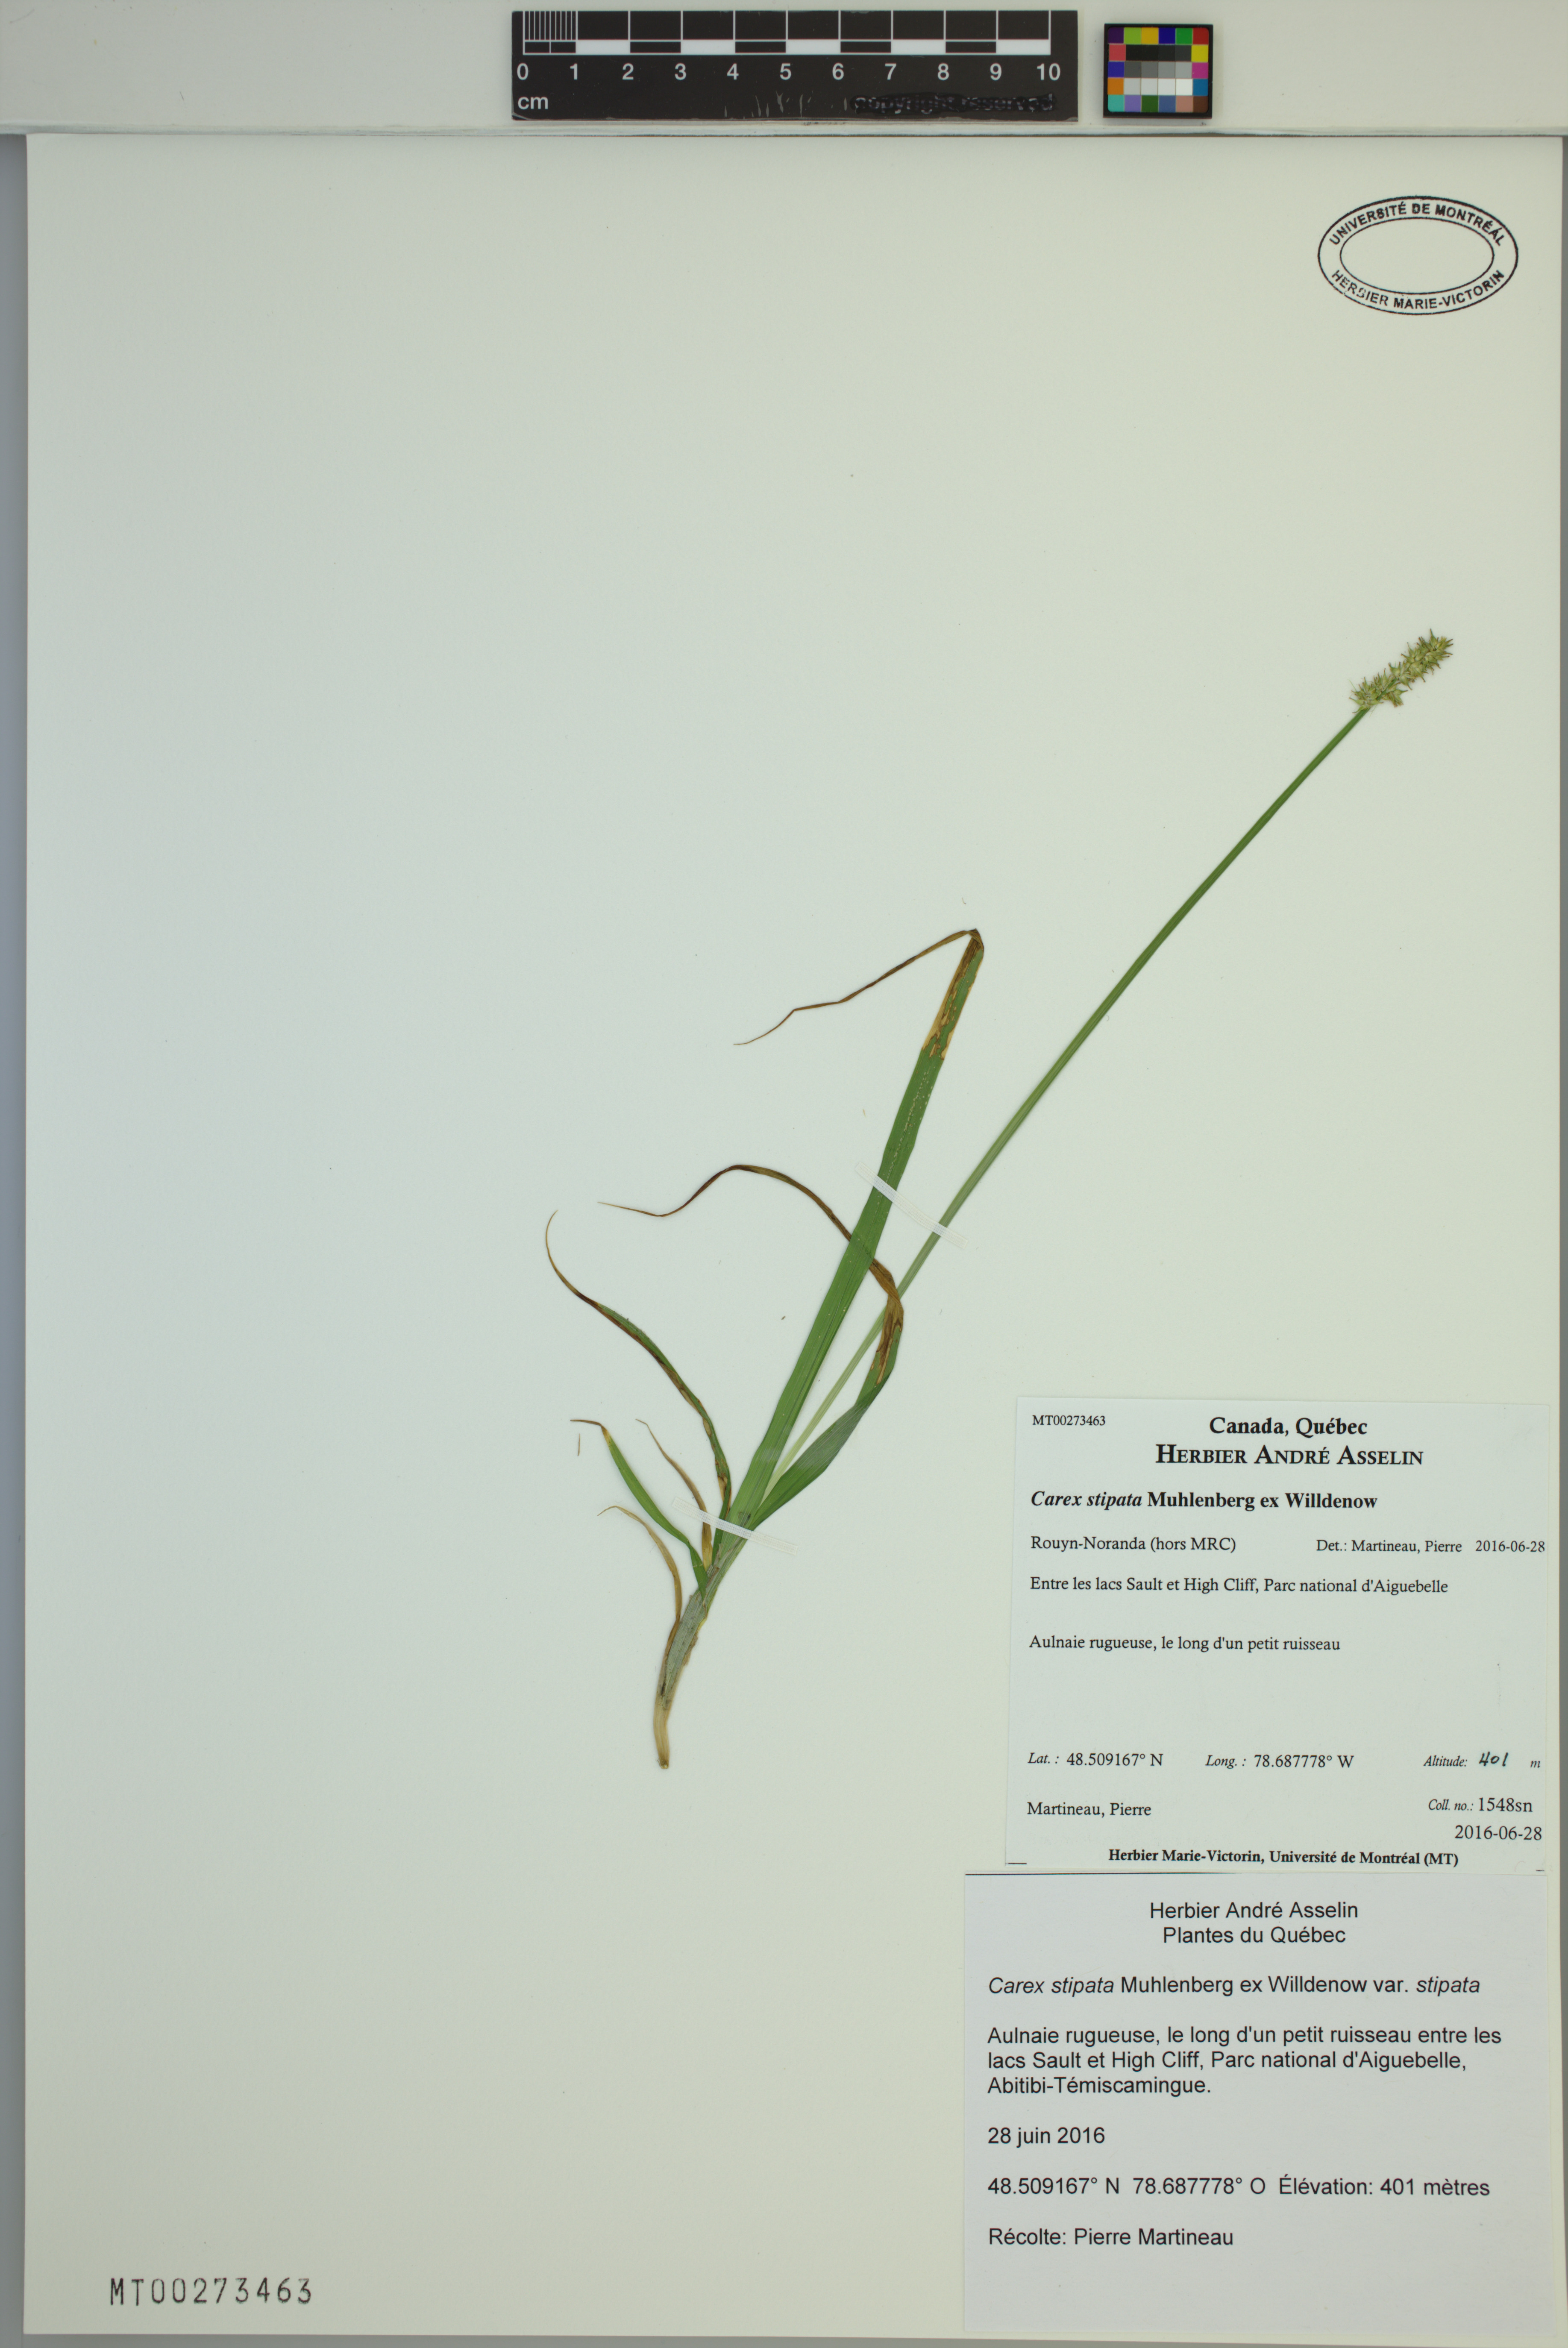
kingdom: Plantae
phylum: Tracheophyta
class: Liliopsida
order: Poales
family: Cyperaceae
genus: Carex
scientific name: Carex stipata
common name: Awl-fruited sedge
